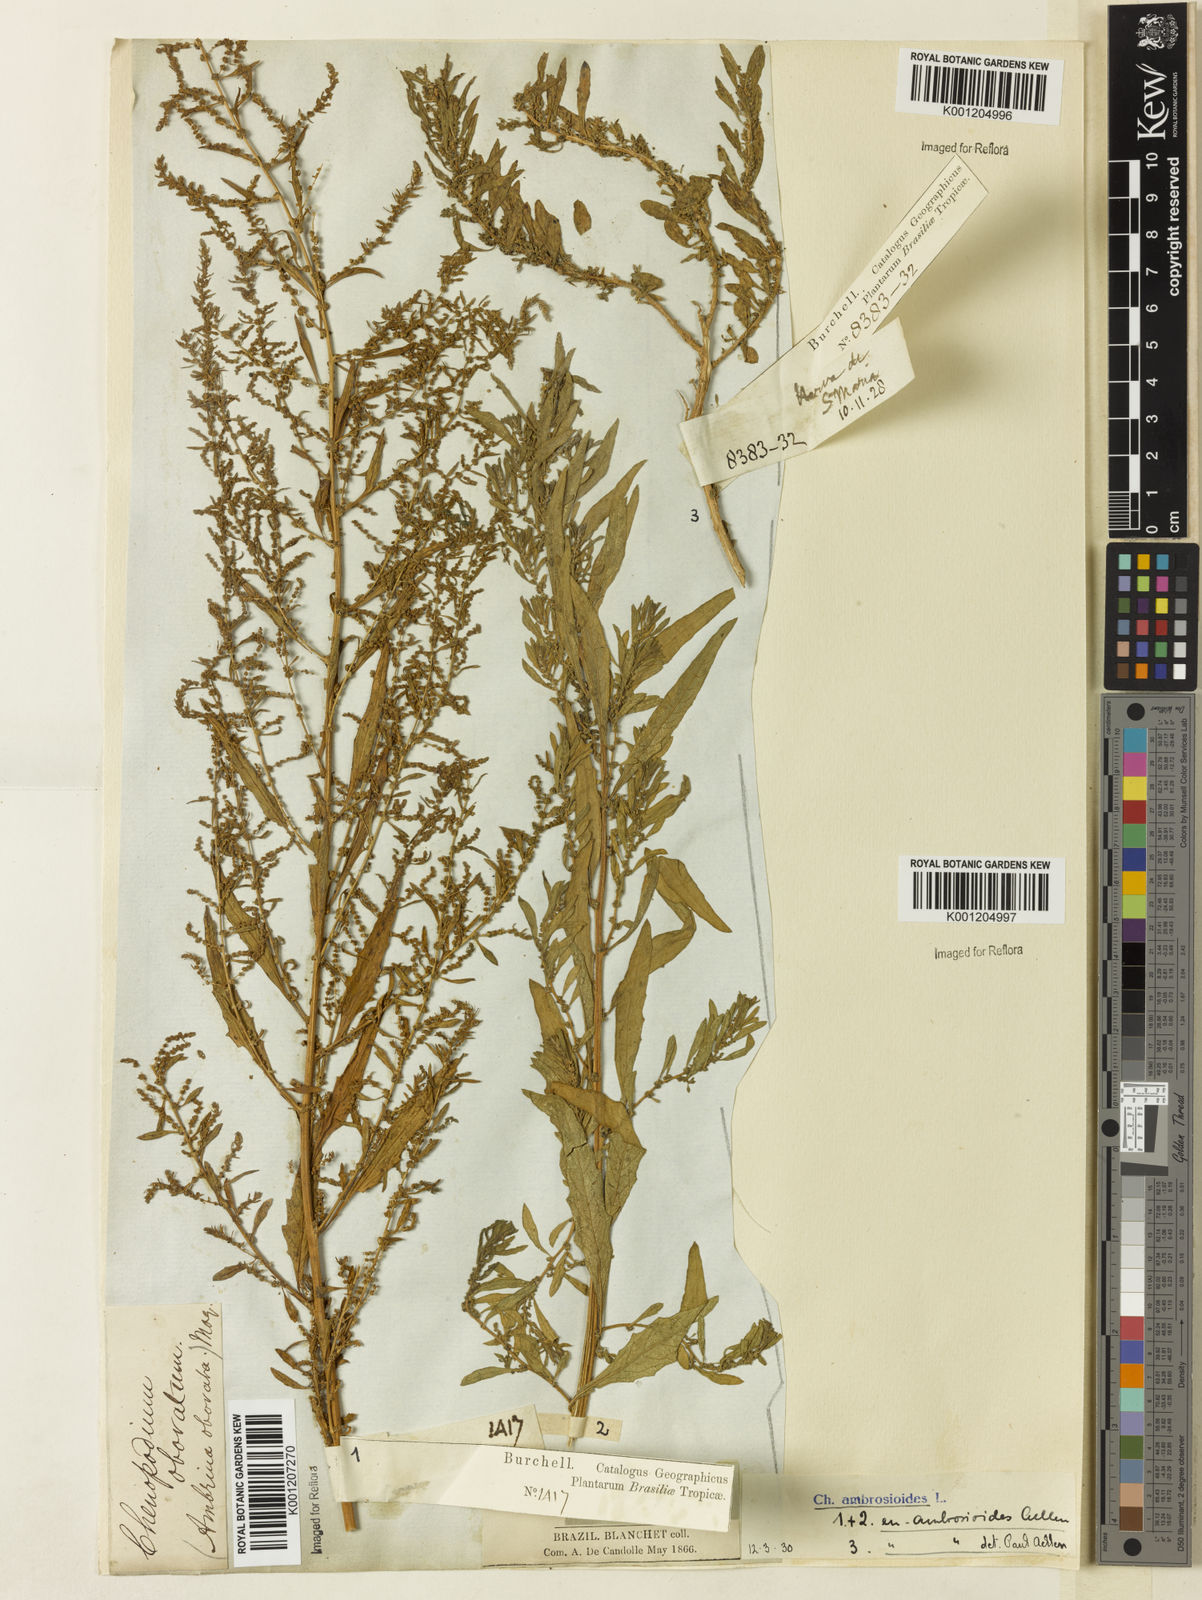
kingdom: Plantae
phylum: Tracheophyta
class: Magnoliopsida
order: Caryophyllales
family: Amaranthaceae
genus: Dysphania
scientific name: Dysphania ambrosioides
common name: Wormseed
